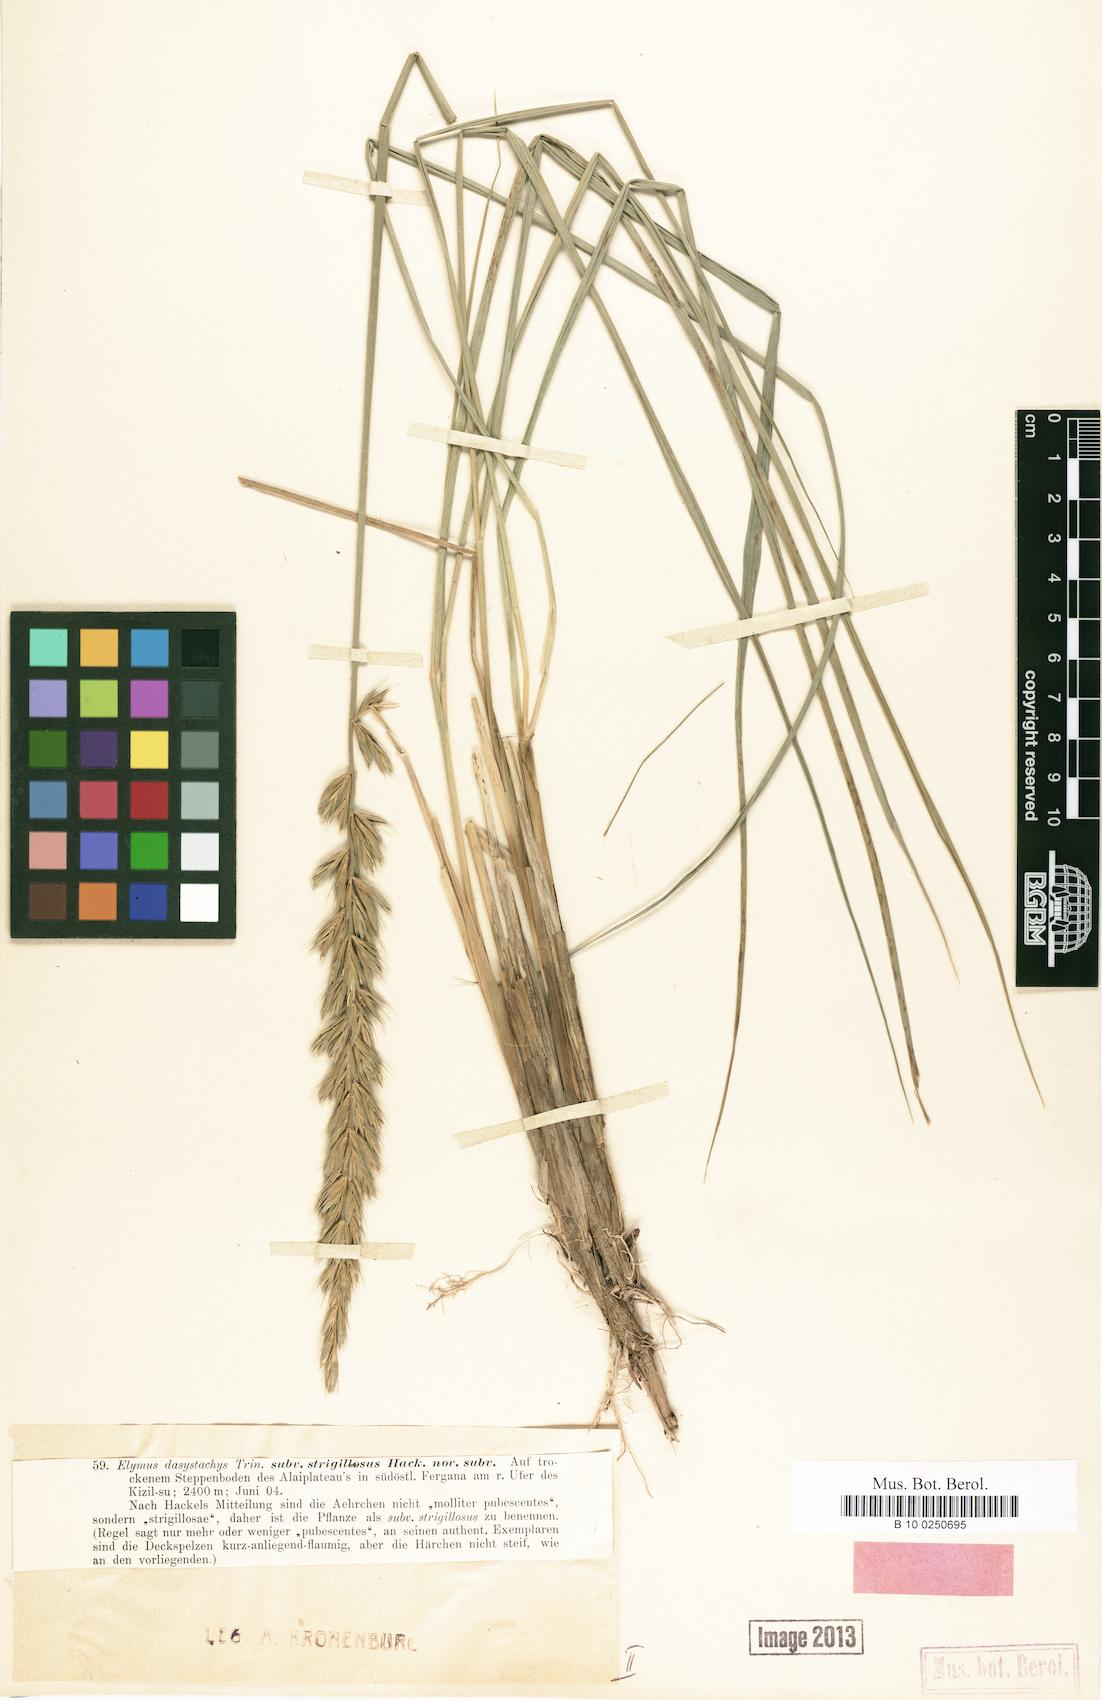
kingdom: Plantae
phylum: Tracheophyta
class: Liliopsida
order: Poales
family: Poaceae
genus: Leymus
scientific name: Leymus secalinus
